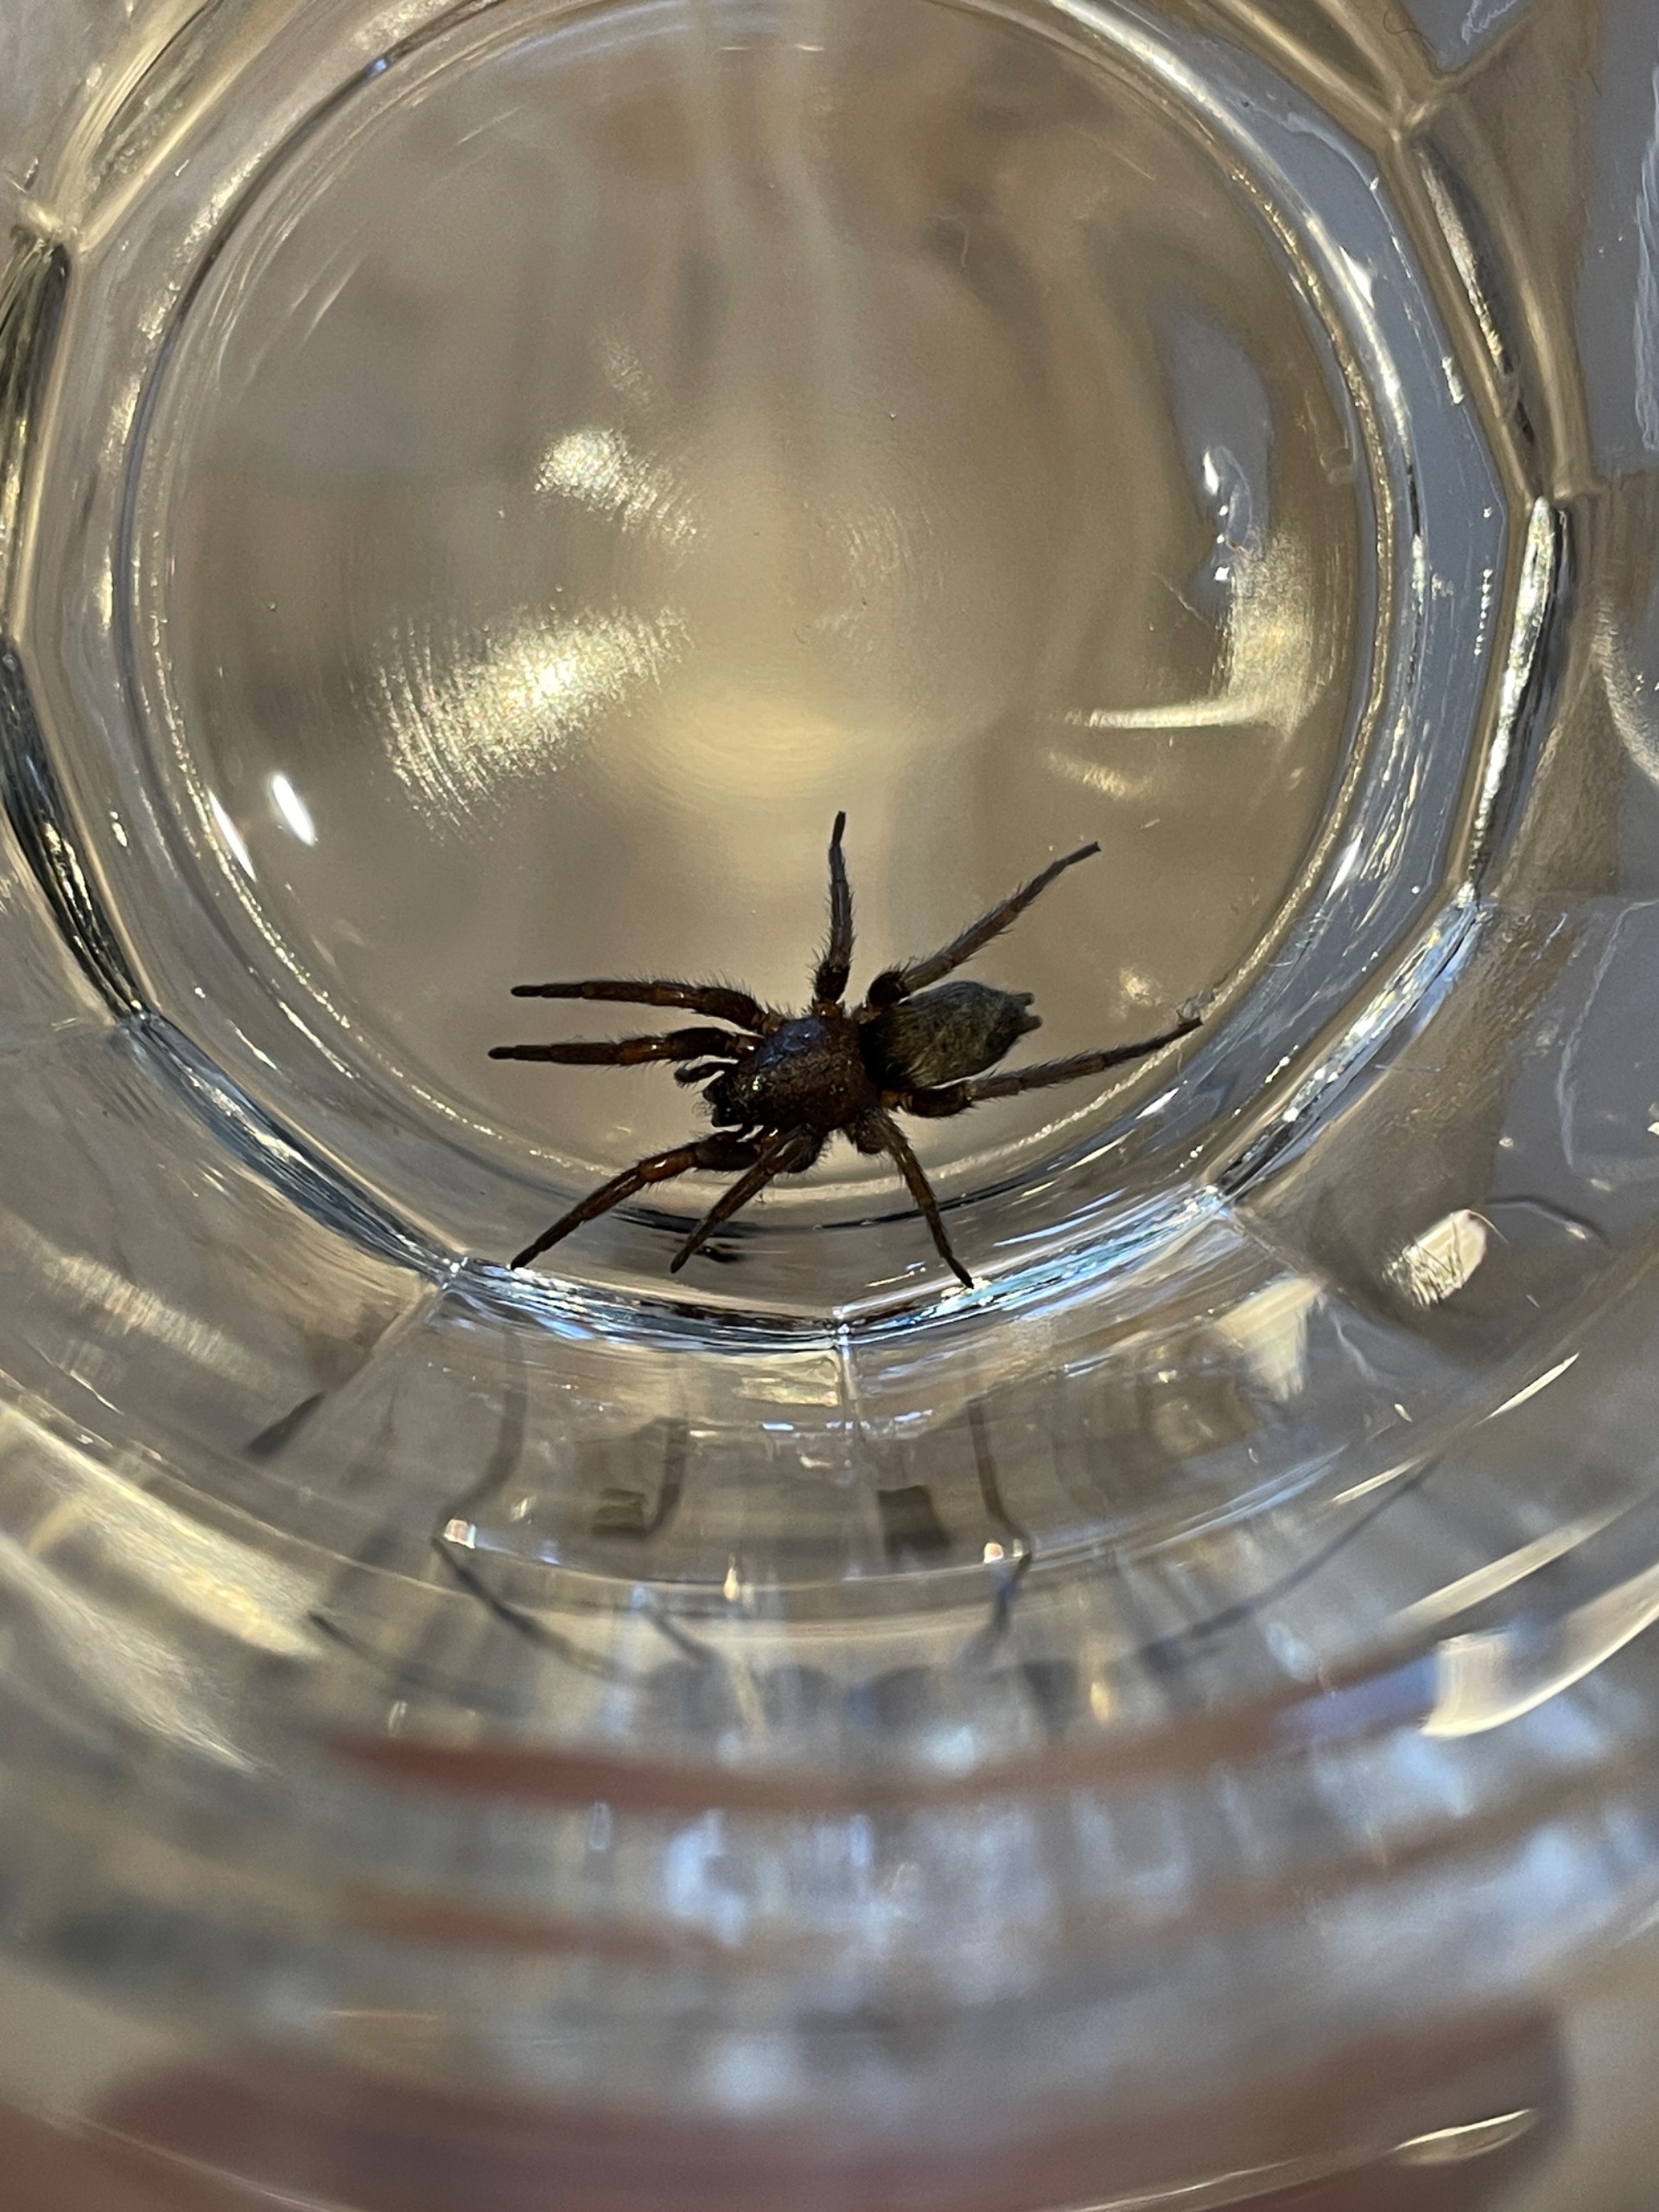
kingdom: Animalia
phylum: Arthropoda
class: Arachnida
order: Araneae
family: Gnaphosidae
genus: Scotophaeus
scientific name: Scotophaeus
